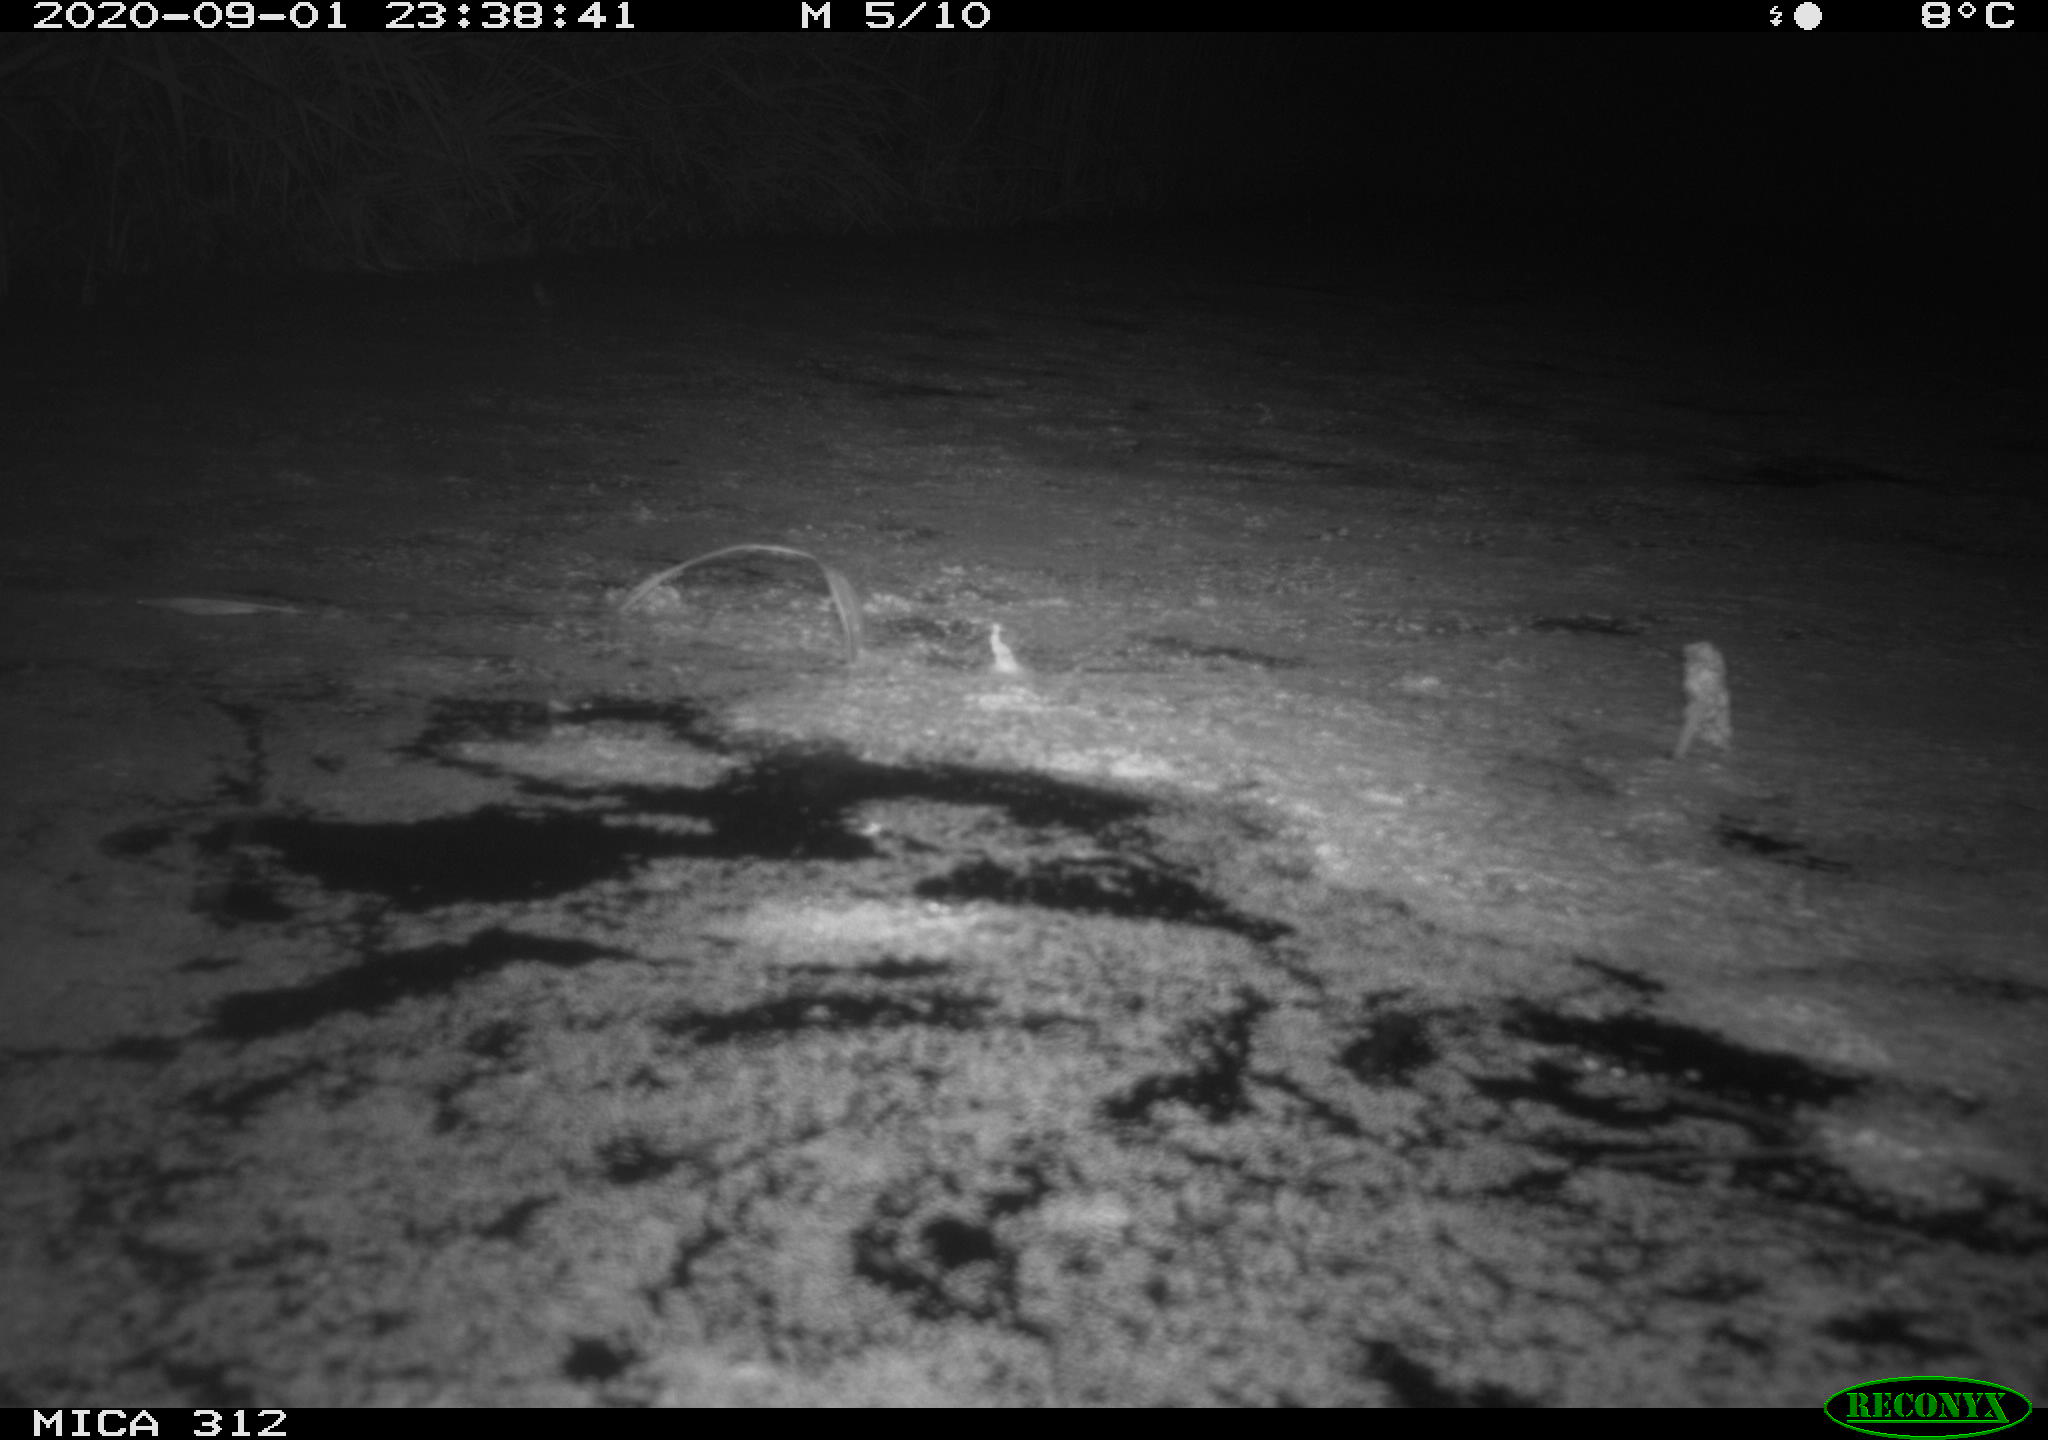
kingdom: Animalia
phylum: Chordata
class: Mammalia
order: Rodentia
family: Muridae
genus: Rattus
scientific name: Rattus norvegicus
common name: Brown rat
